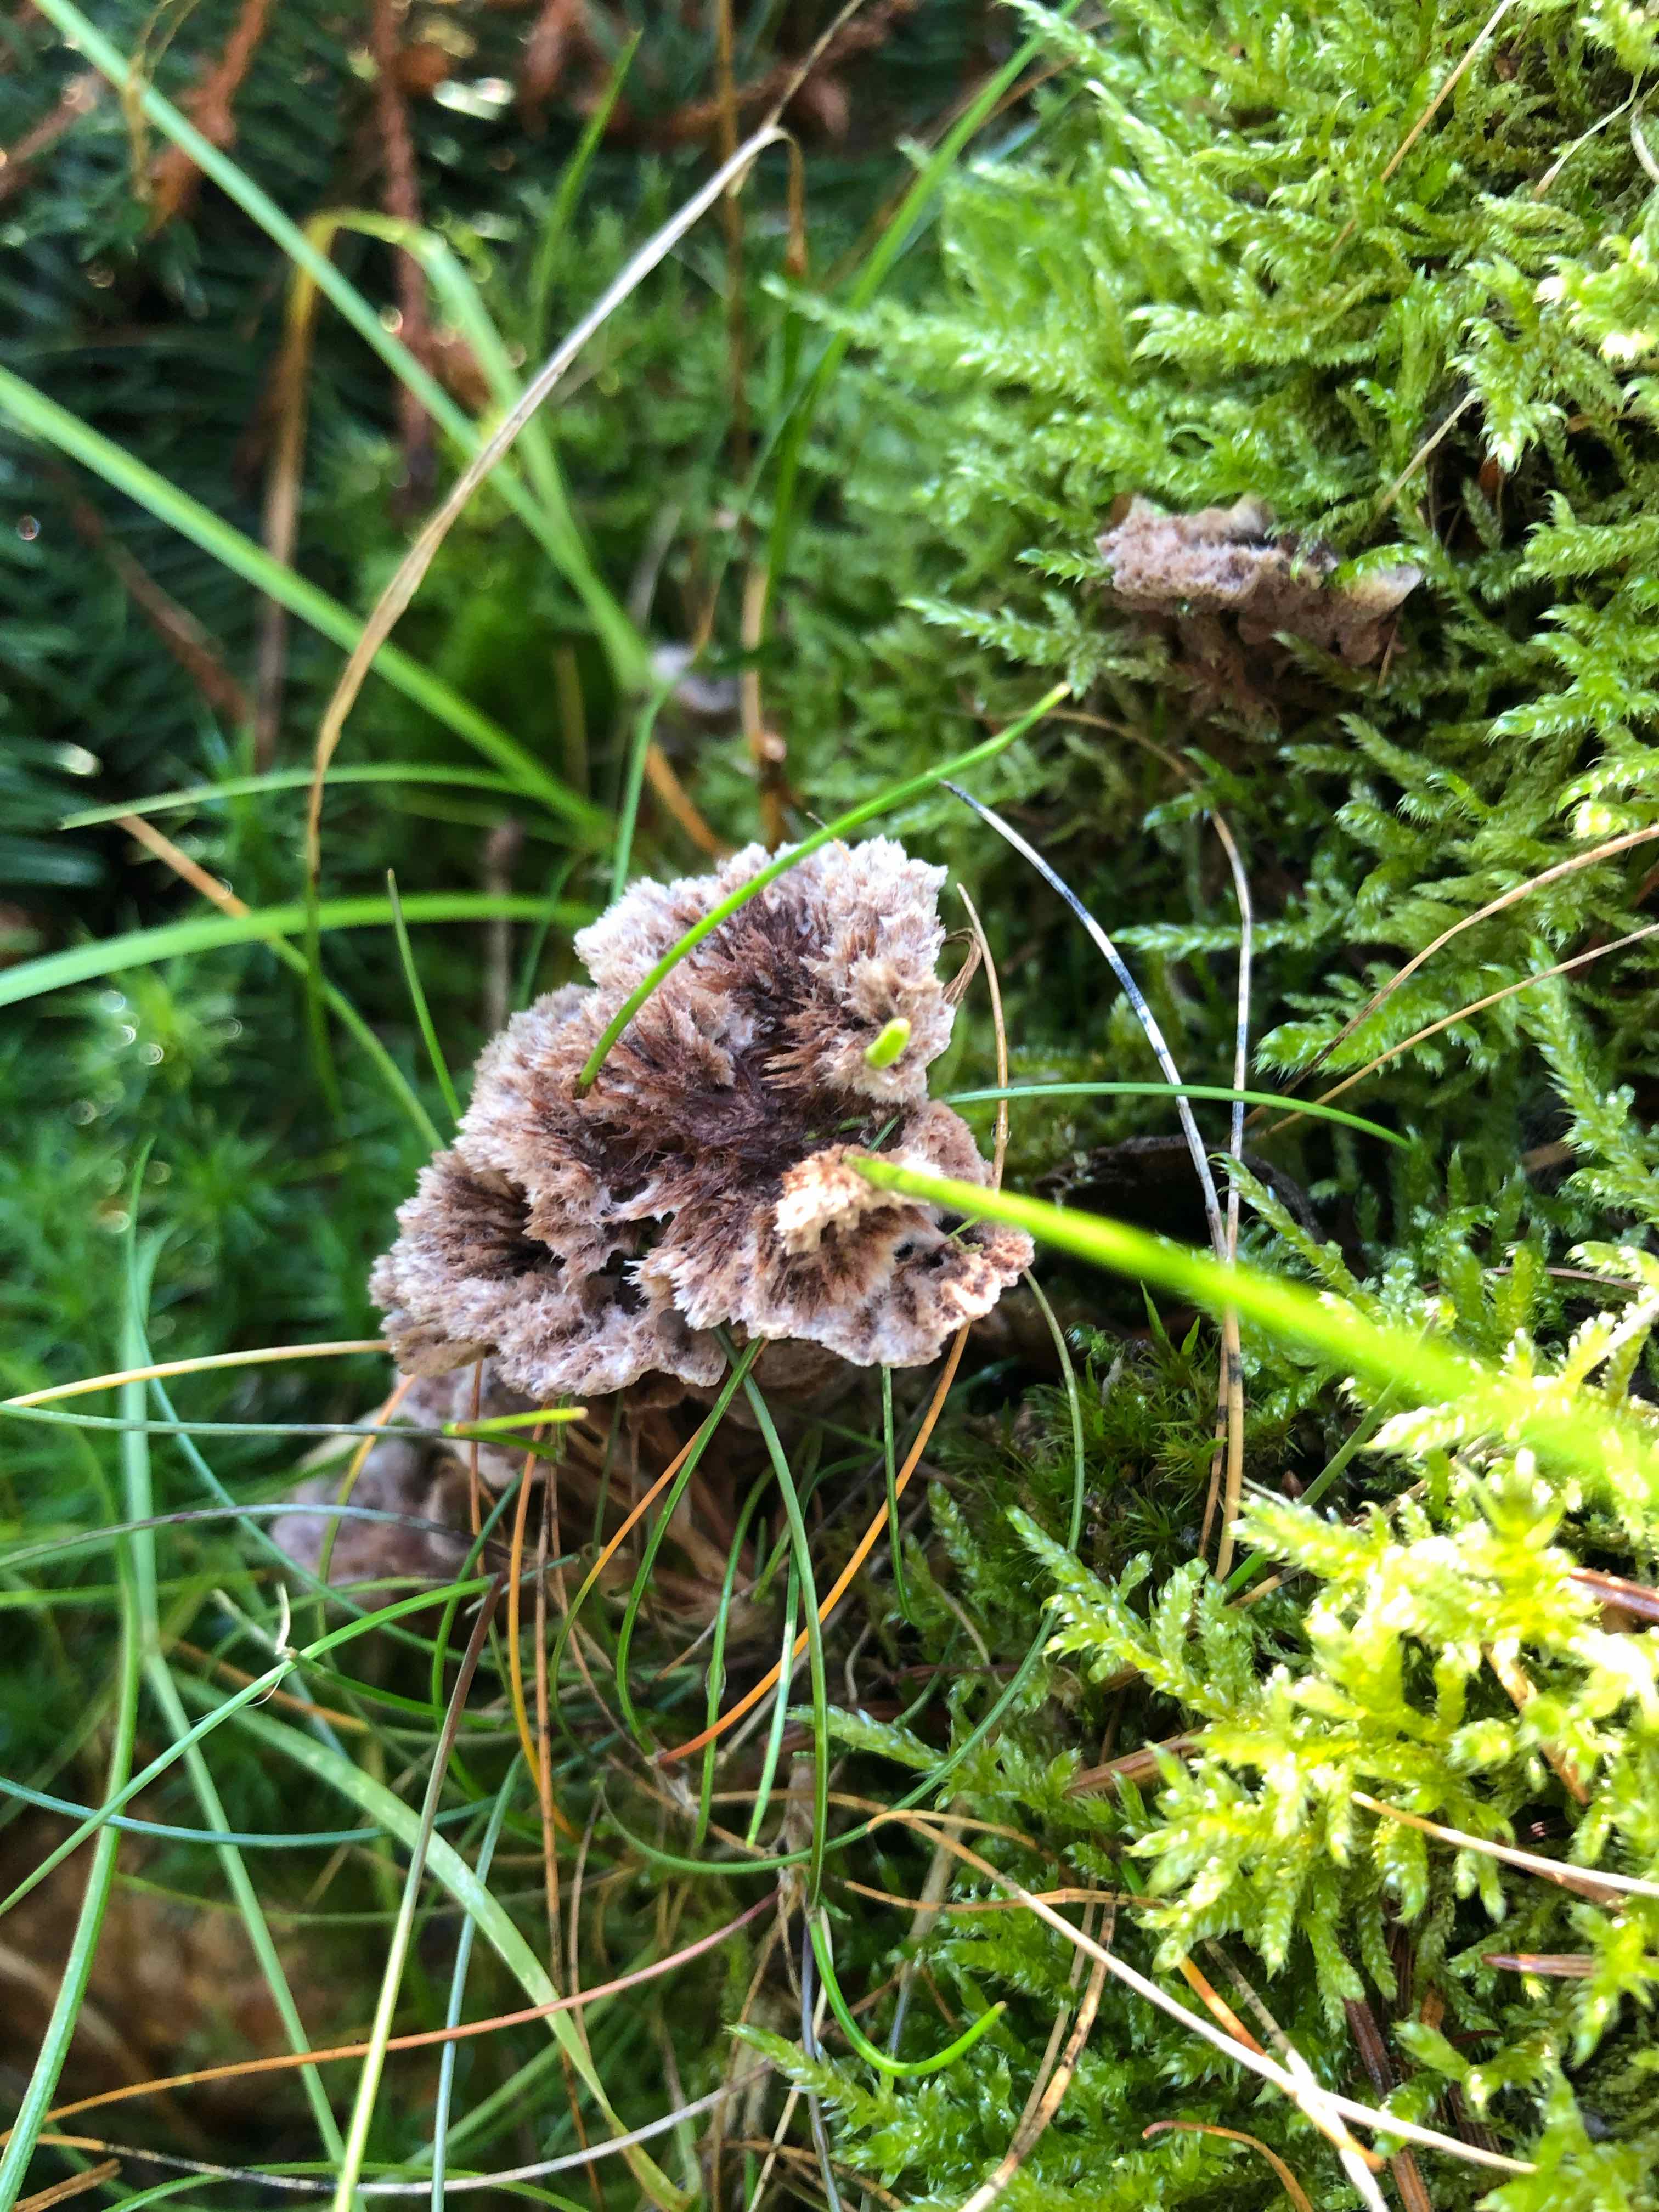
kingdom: Fungi
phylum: Basidiomycota
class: Agaricomycetes
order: Thelephorales
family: Thelephoraceae
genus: Thelephora
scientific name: Thelephora terrestris
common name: fliget frynsesvamp
